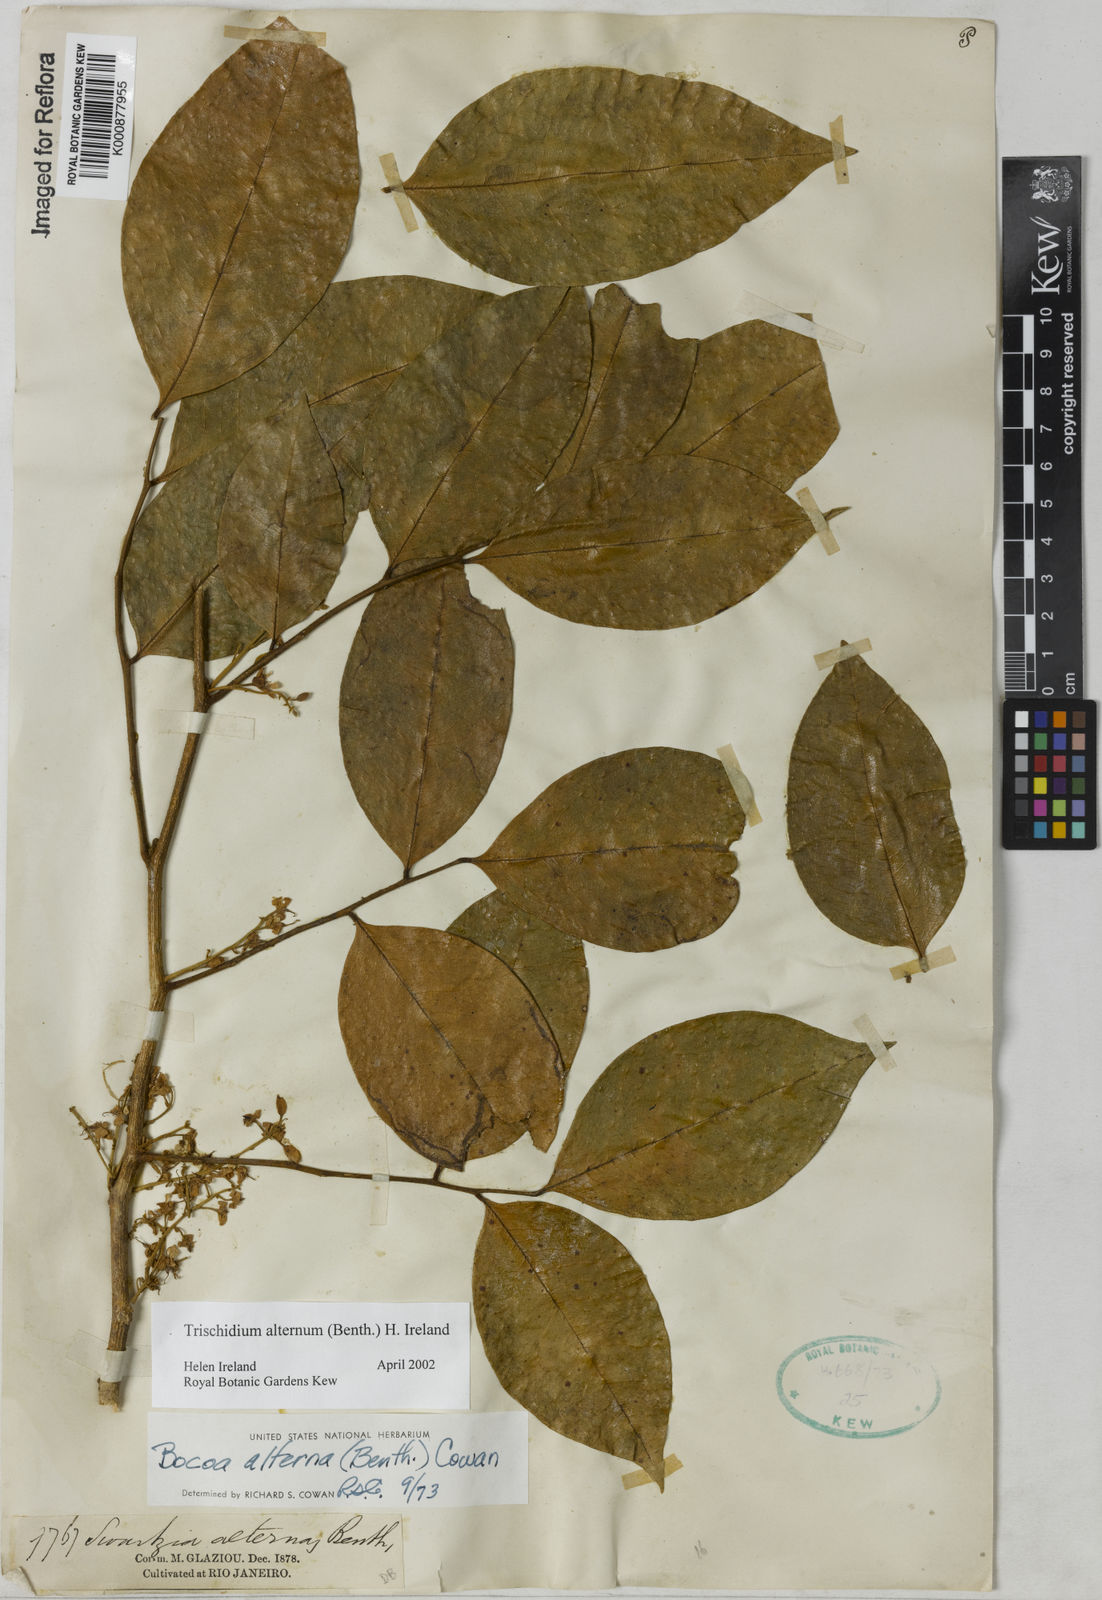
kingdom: Plantae
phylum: Tracheophyta
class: Magnoliopsida
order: Fabales
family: Fabaceae
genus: Trischidium
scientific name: Trischidium alternum
